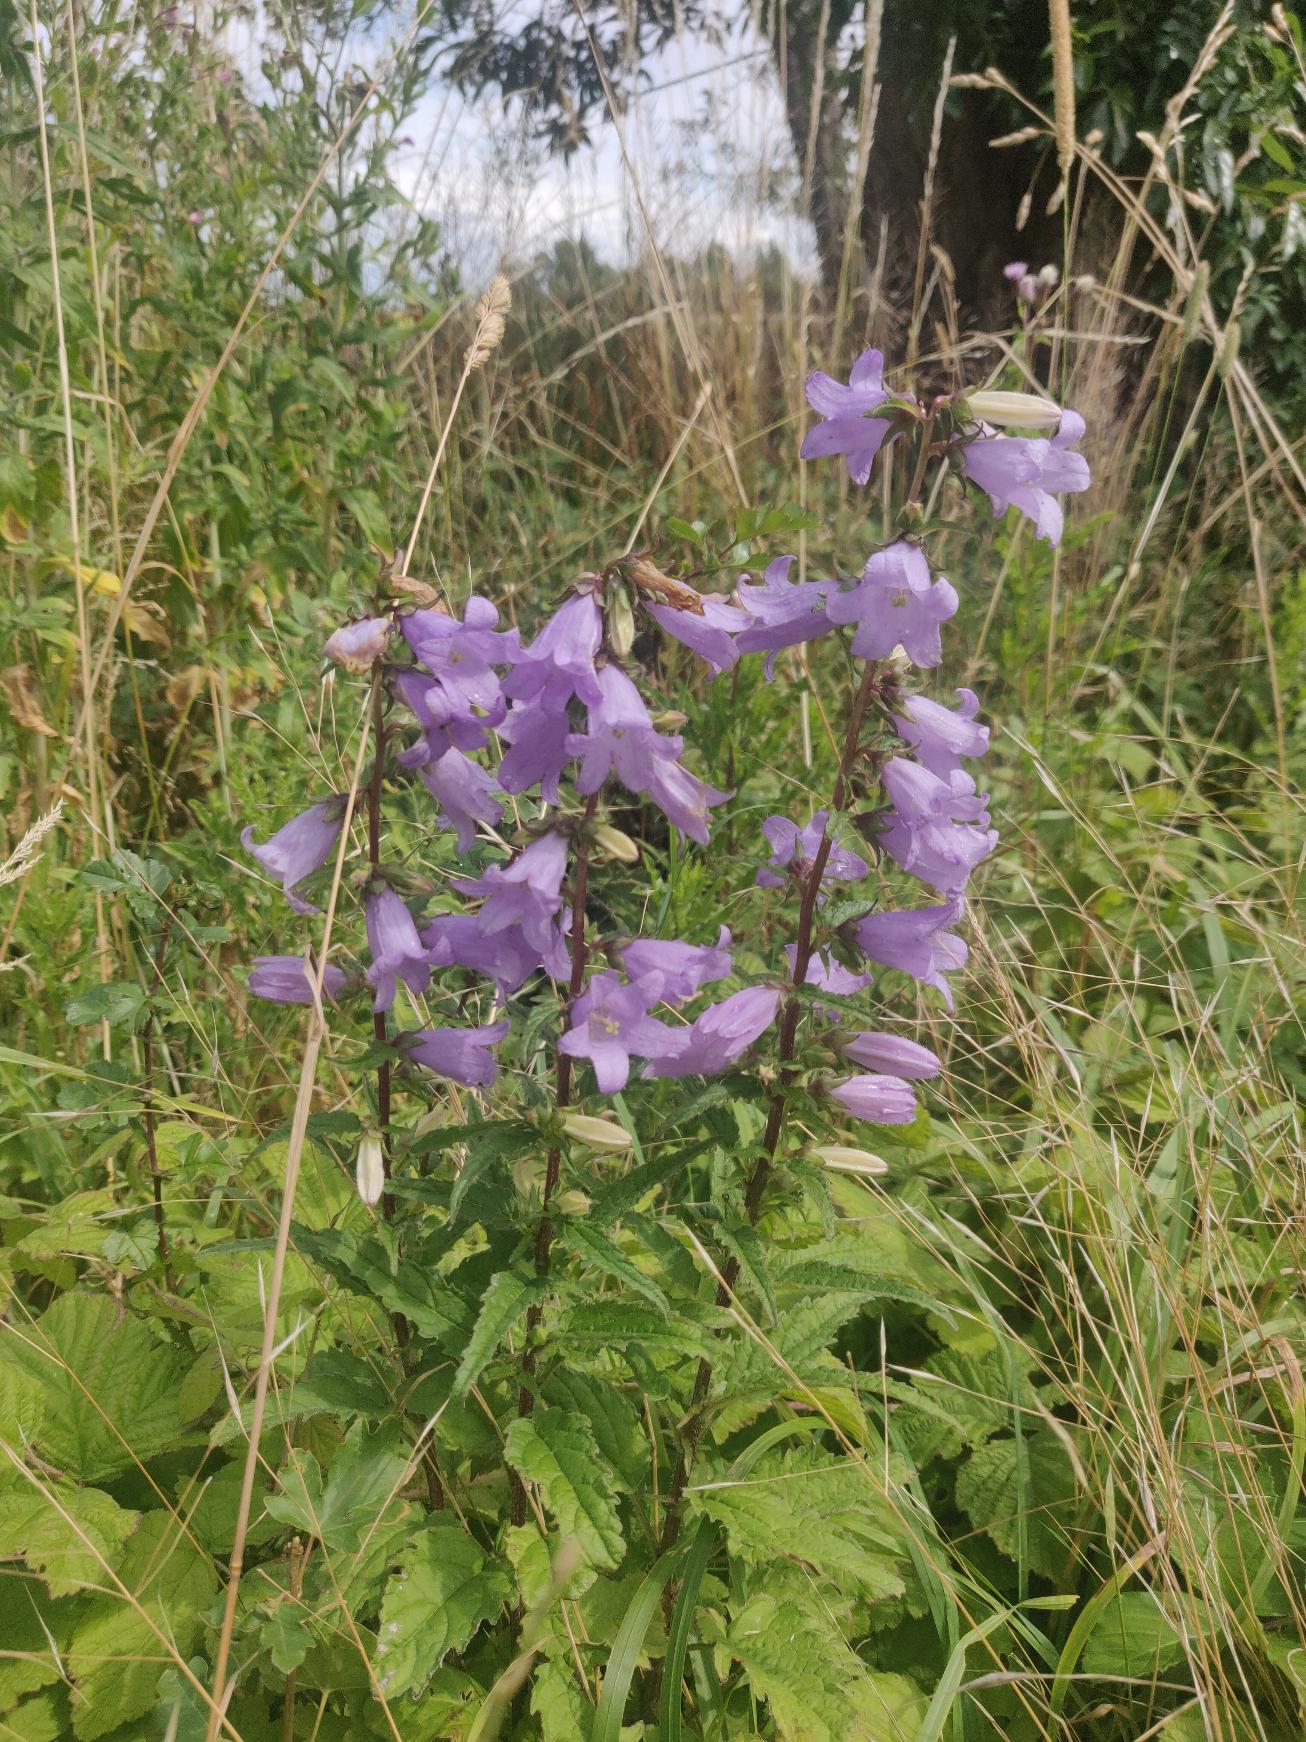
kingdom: Plantae
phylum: Tracheophyta
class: Magnoliopsida
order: Asterales
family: Campanulaceae
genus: Campanula
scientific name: Campanula trachelium
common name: Nælde-klokke
